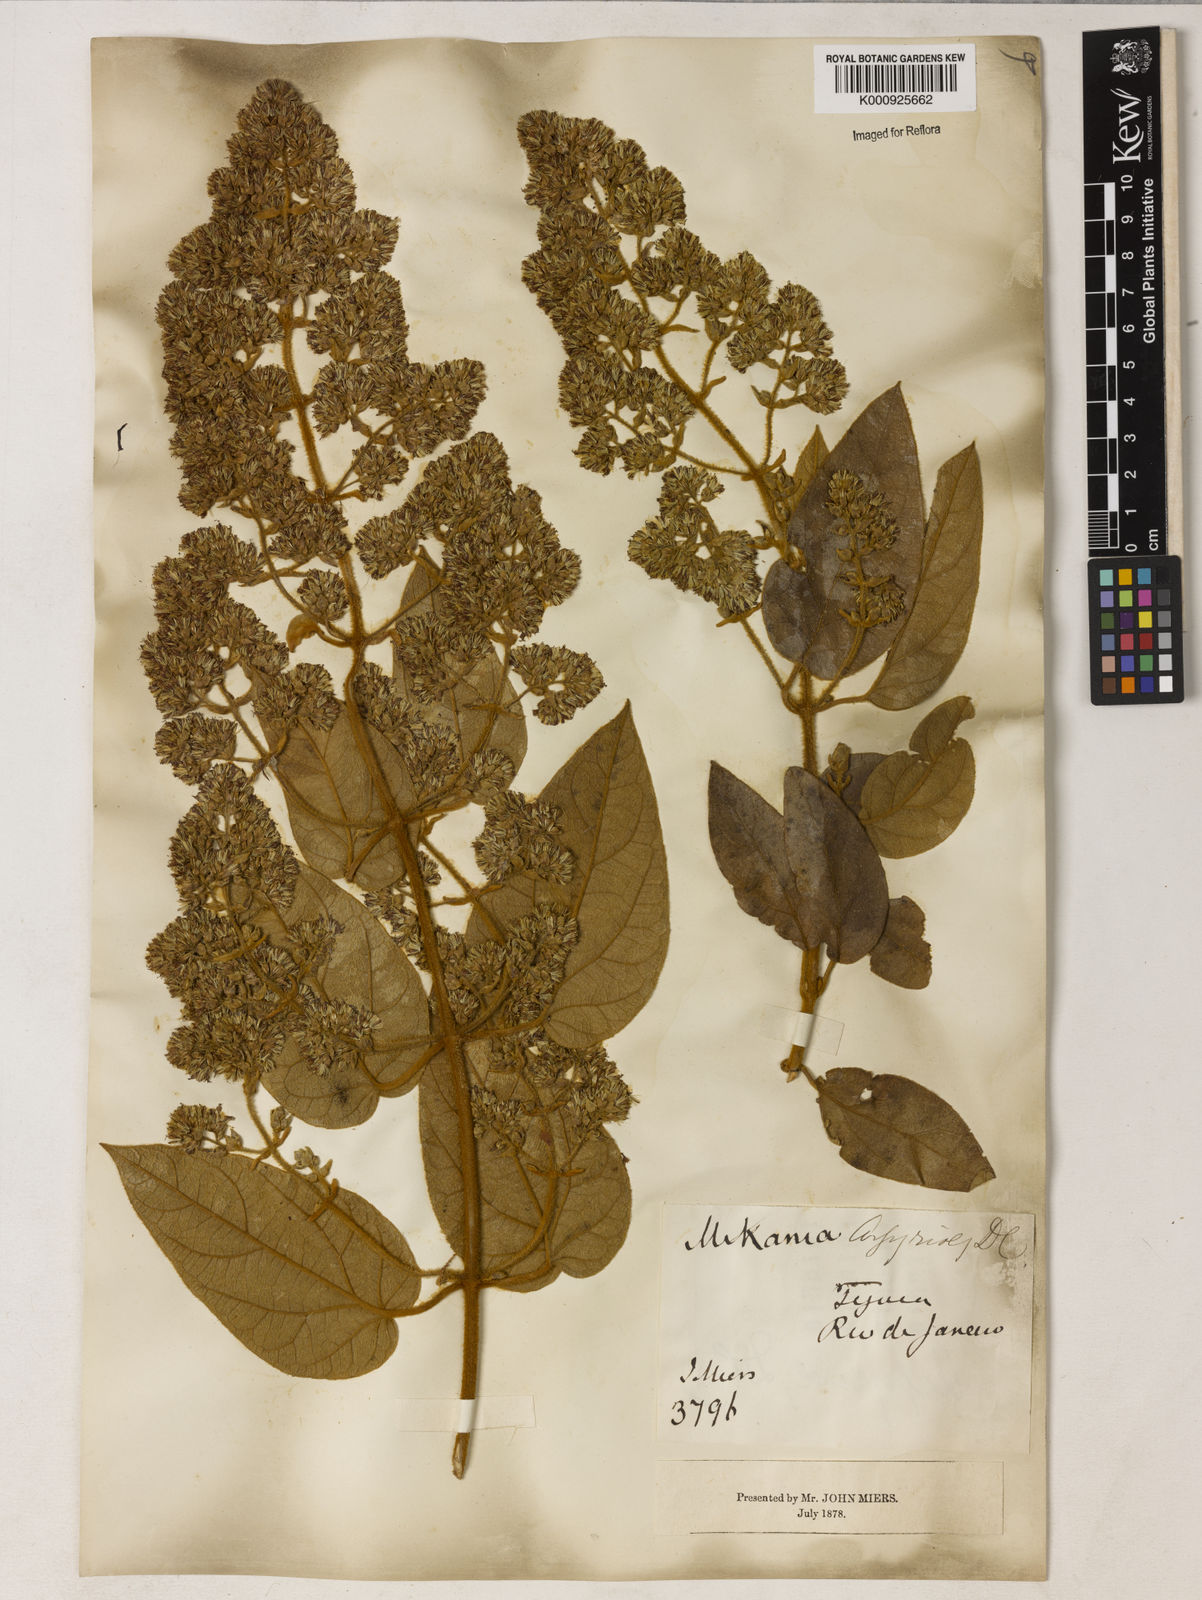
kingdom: Plantae
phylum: Tracheophyta
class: Magnoliopsida
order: Asterales
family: Asteraceae
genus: Mikania
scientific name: Mikania conferta
